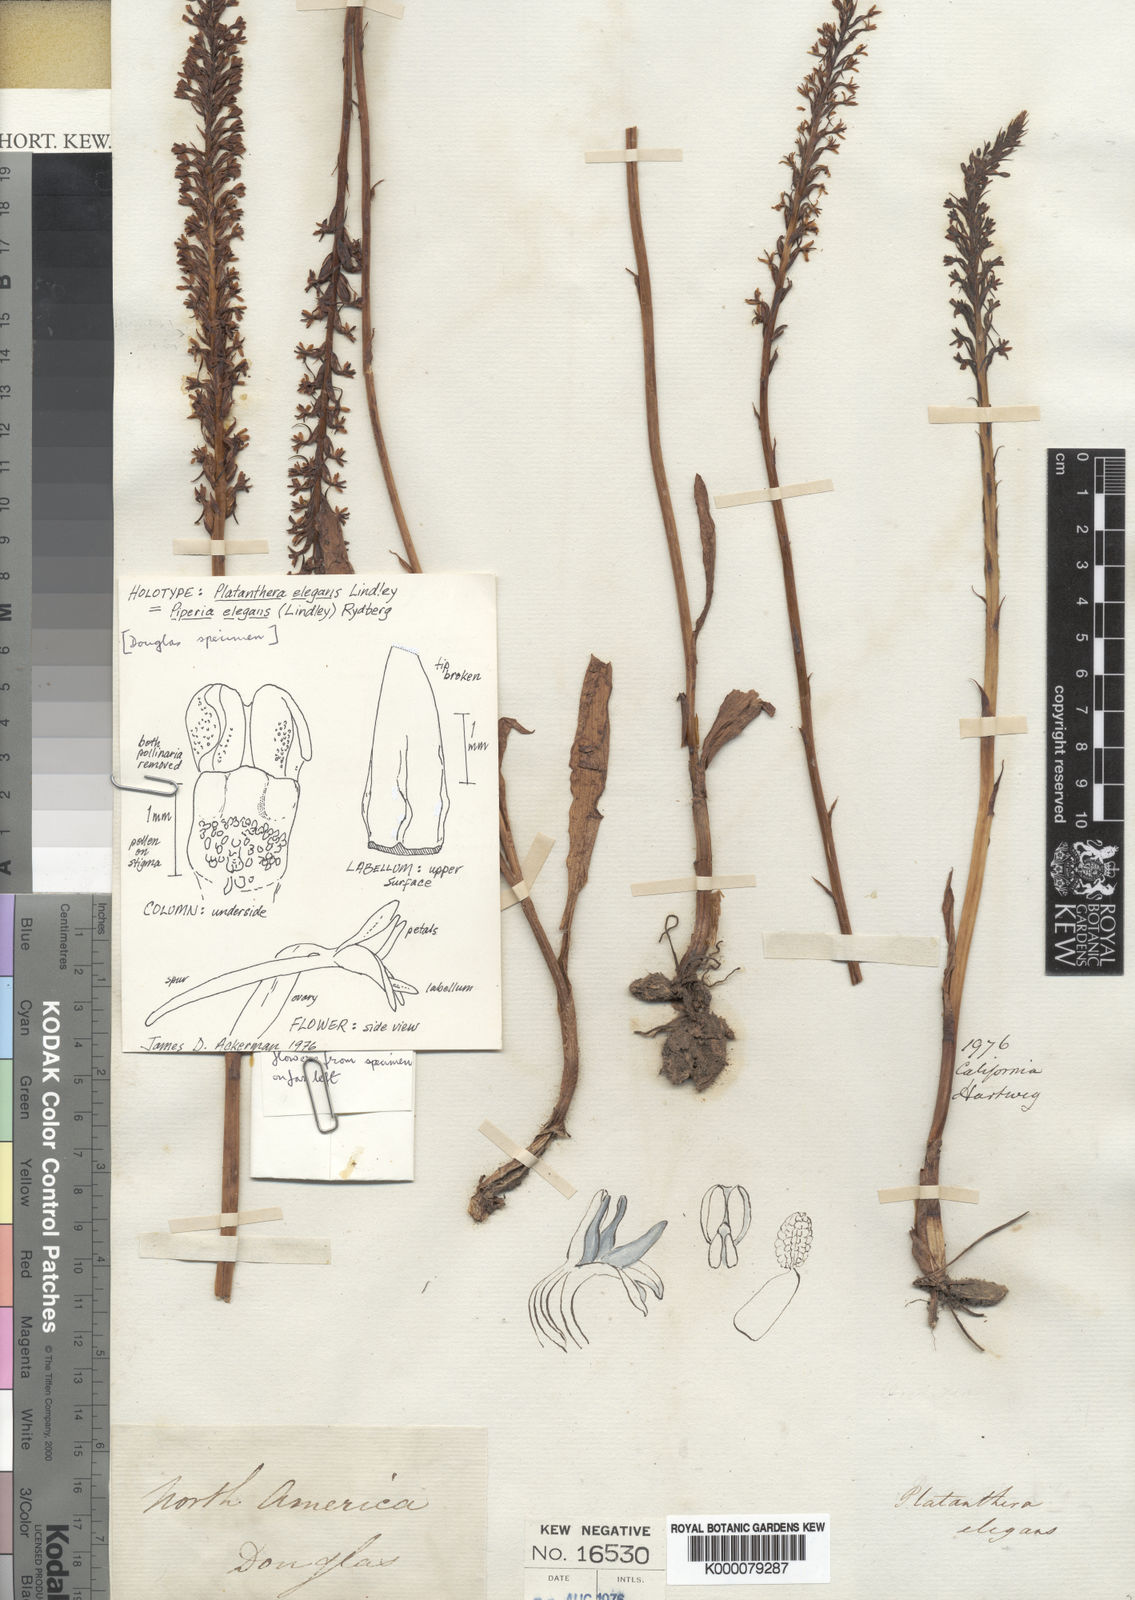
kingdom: Plantae
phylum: Tracheophyta
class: Liliopsida
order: Asparagales
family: Orchidaceae
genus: Platanthera
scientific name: Platanthera elegans
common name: Coast piperia
